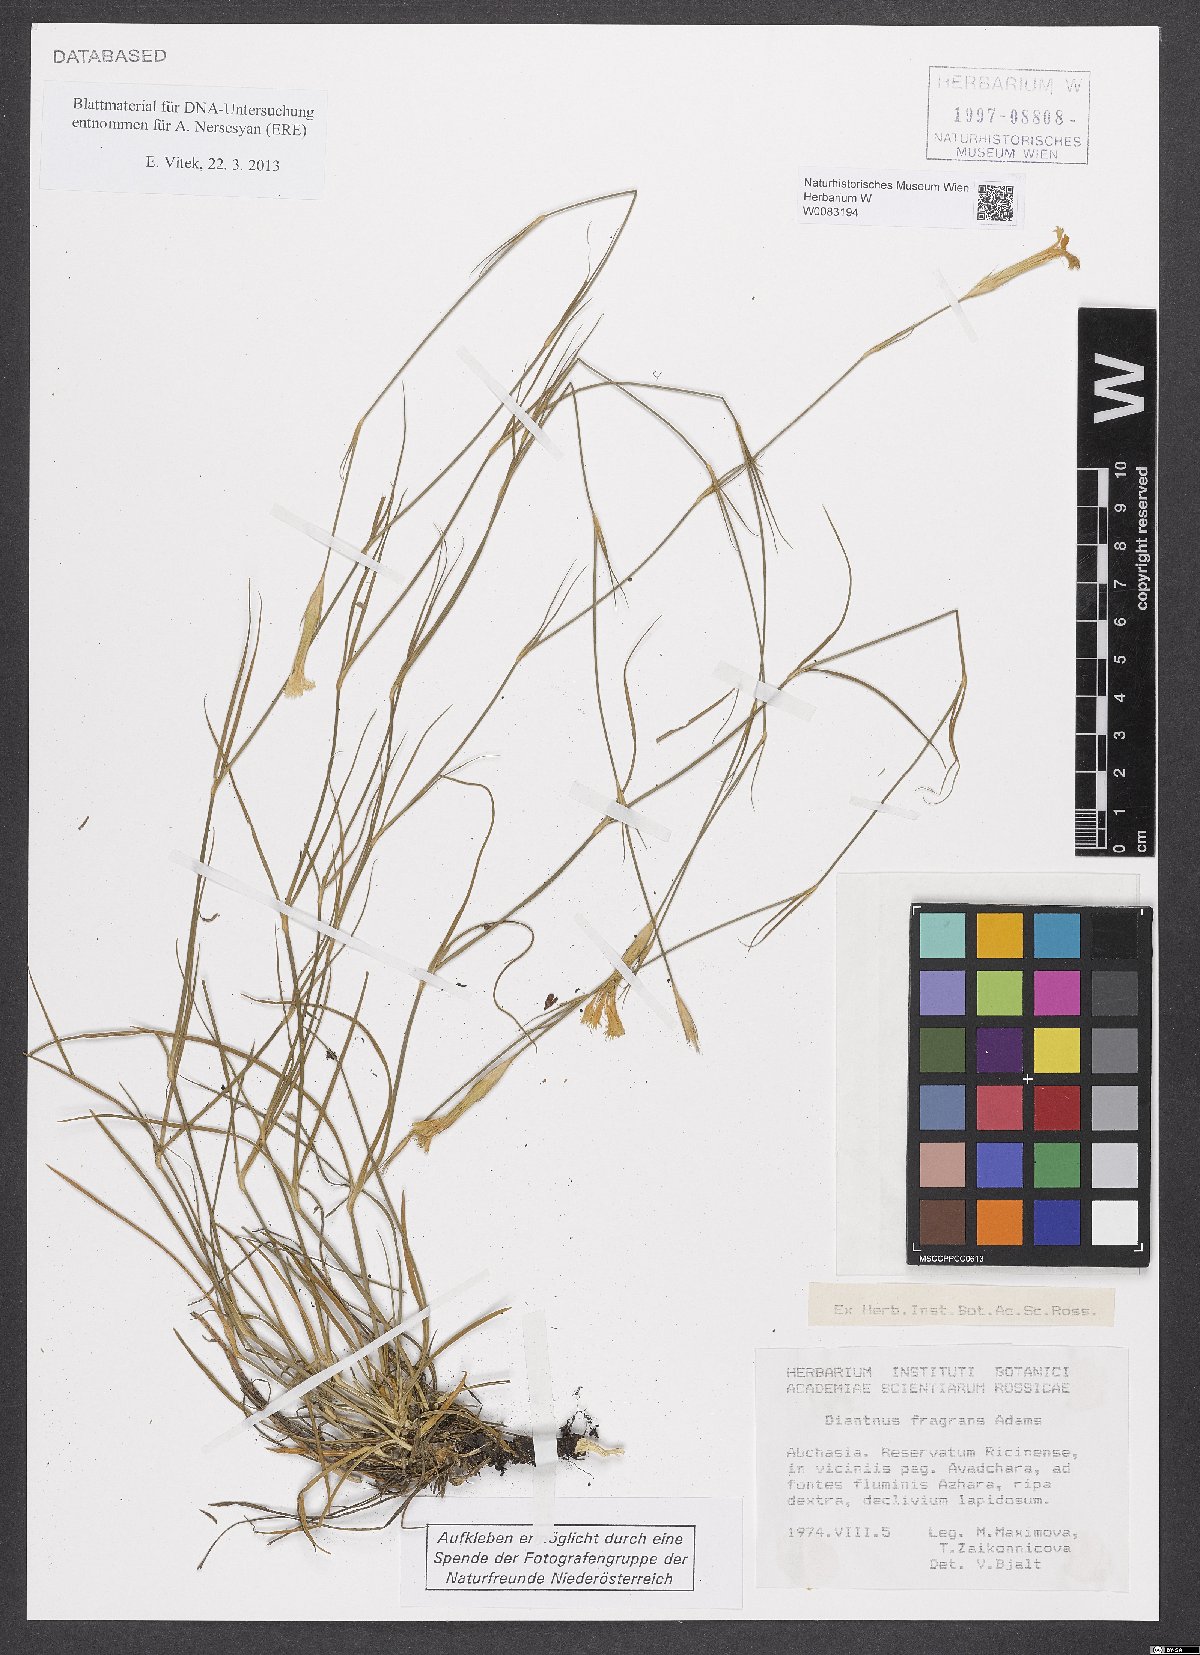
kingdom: Plantae
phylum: Tracheophyta
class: Magnoliopsida
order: Caryophyllales
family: Caryophyllaceae
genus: Dianthus
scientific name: Dianthus fragrans
